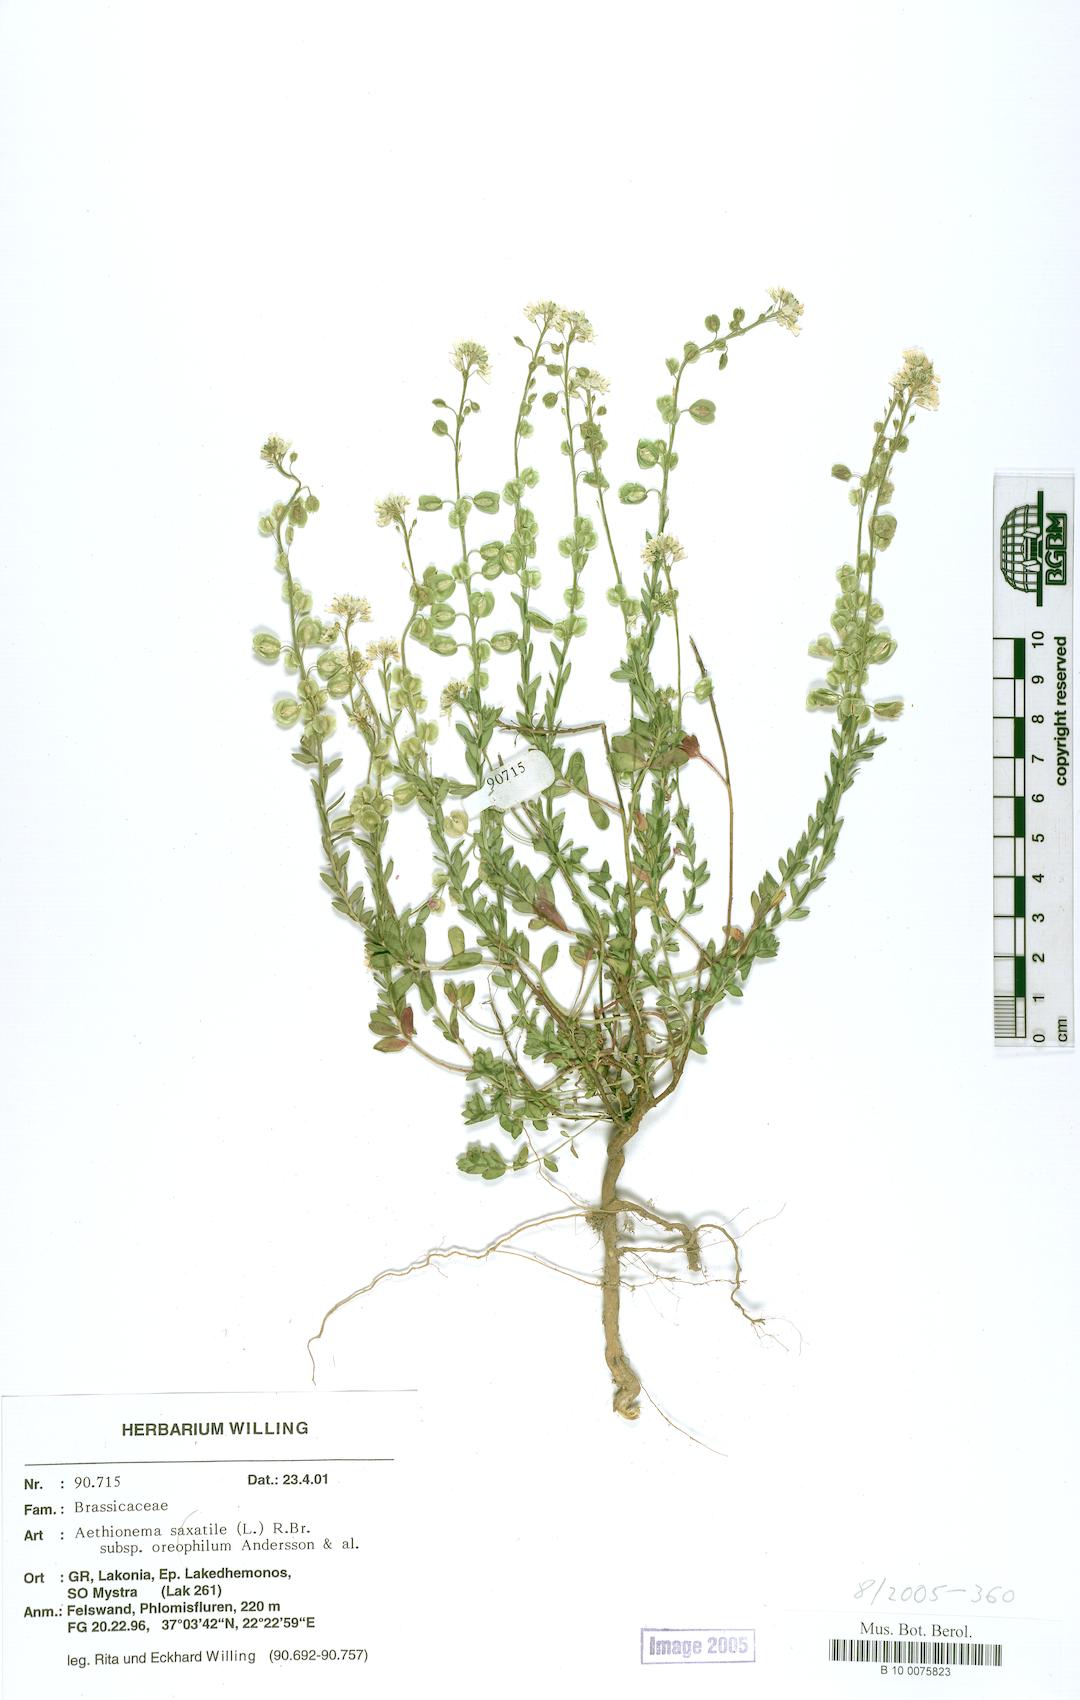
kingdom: Plantae
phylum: Tracheophyta
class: Magnoliopsida
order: Brassicales
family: Brassicaceae
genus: Aethionema
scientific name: Aethionema saxatile
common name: Burnt candytuft
